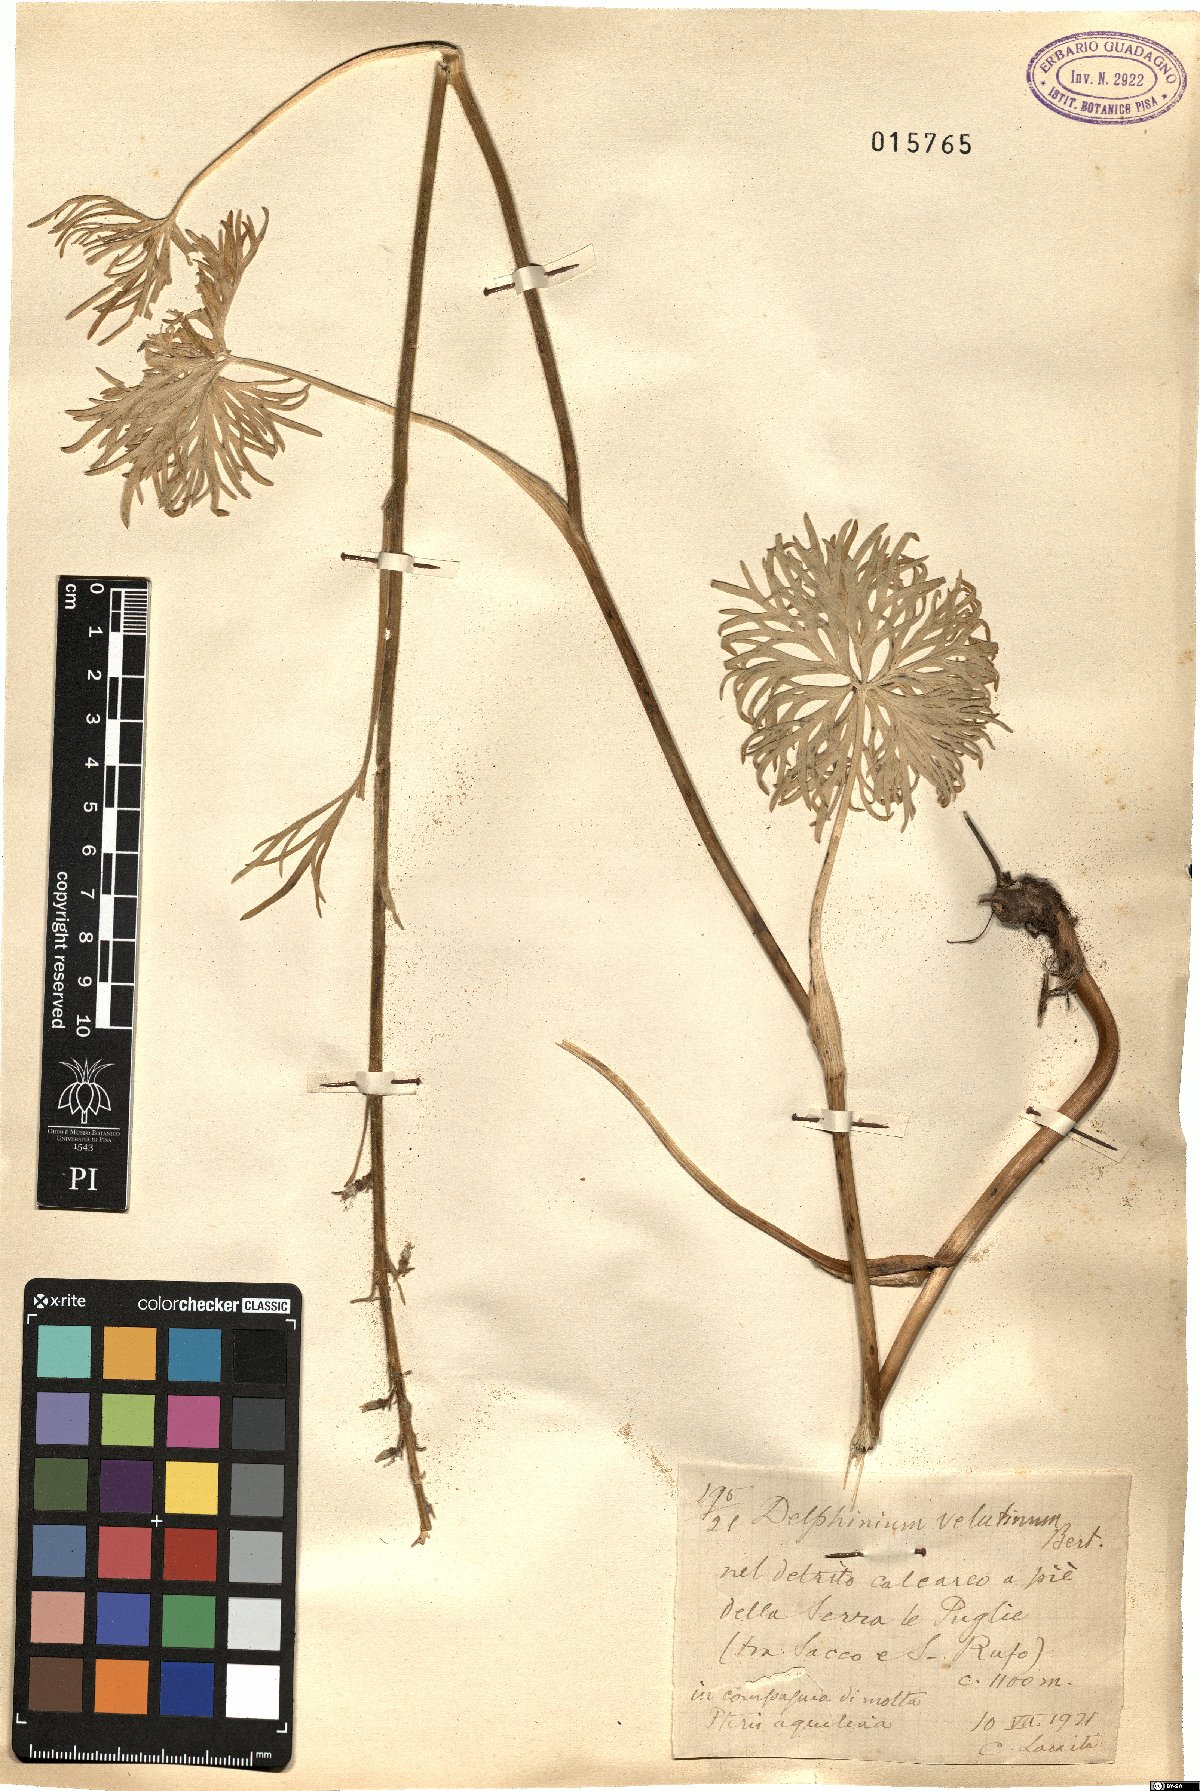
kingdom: Plantae
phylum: Tracheophyta
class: Magnoliopsida
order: Ranunculales
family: Ranunculaceae
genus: Delphinium
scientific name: Delphinium fissum
